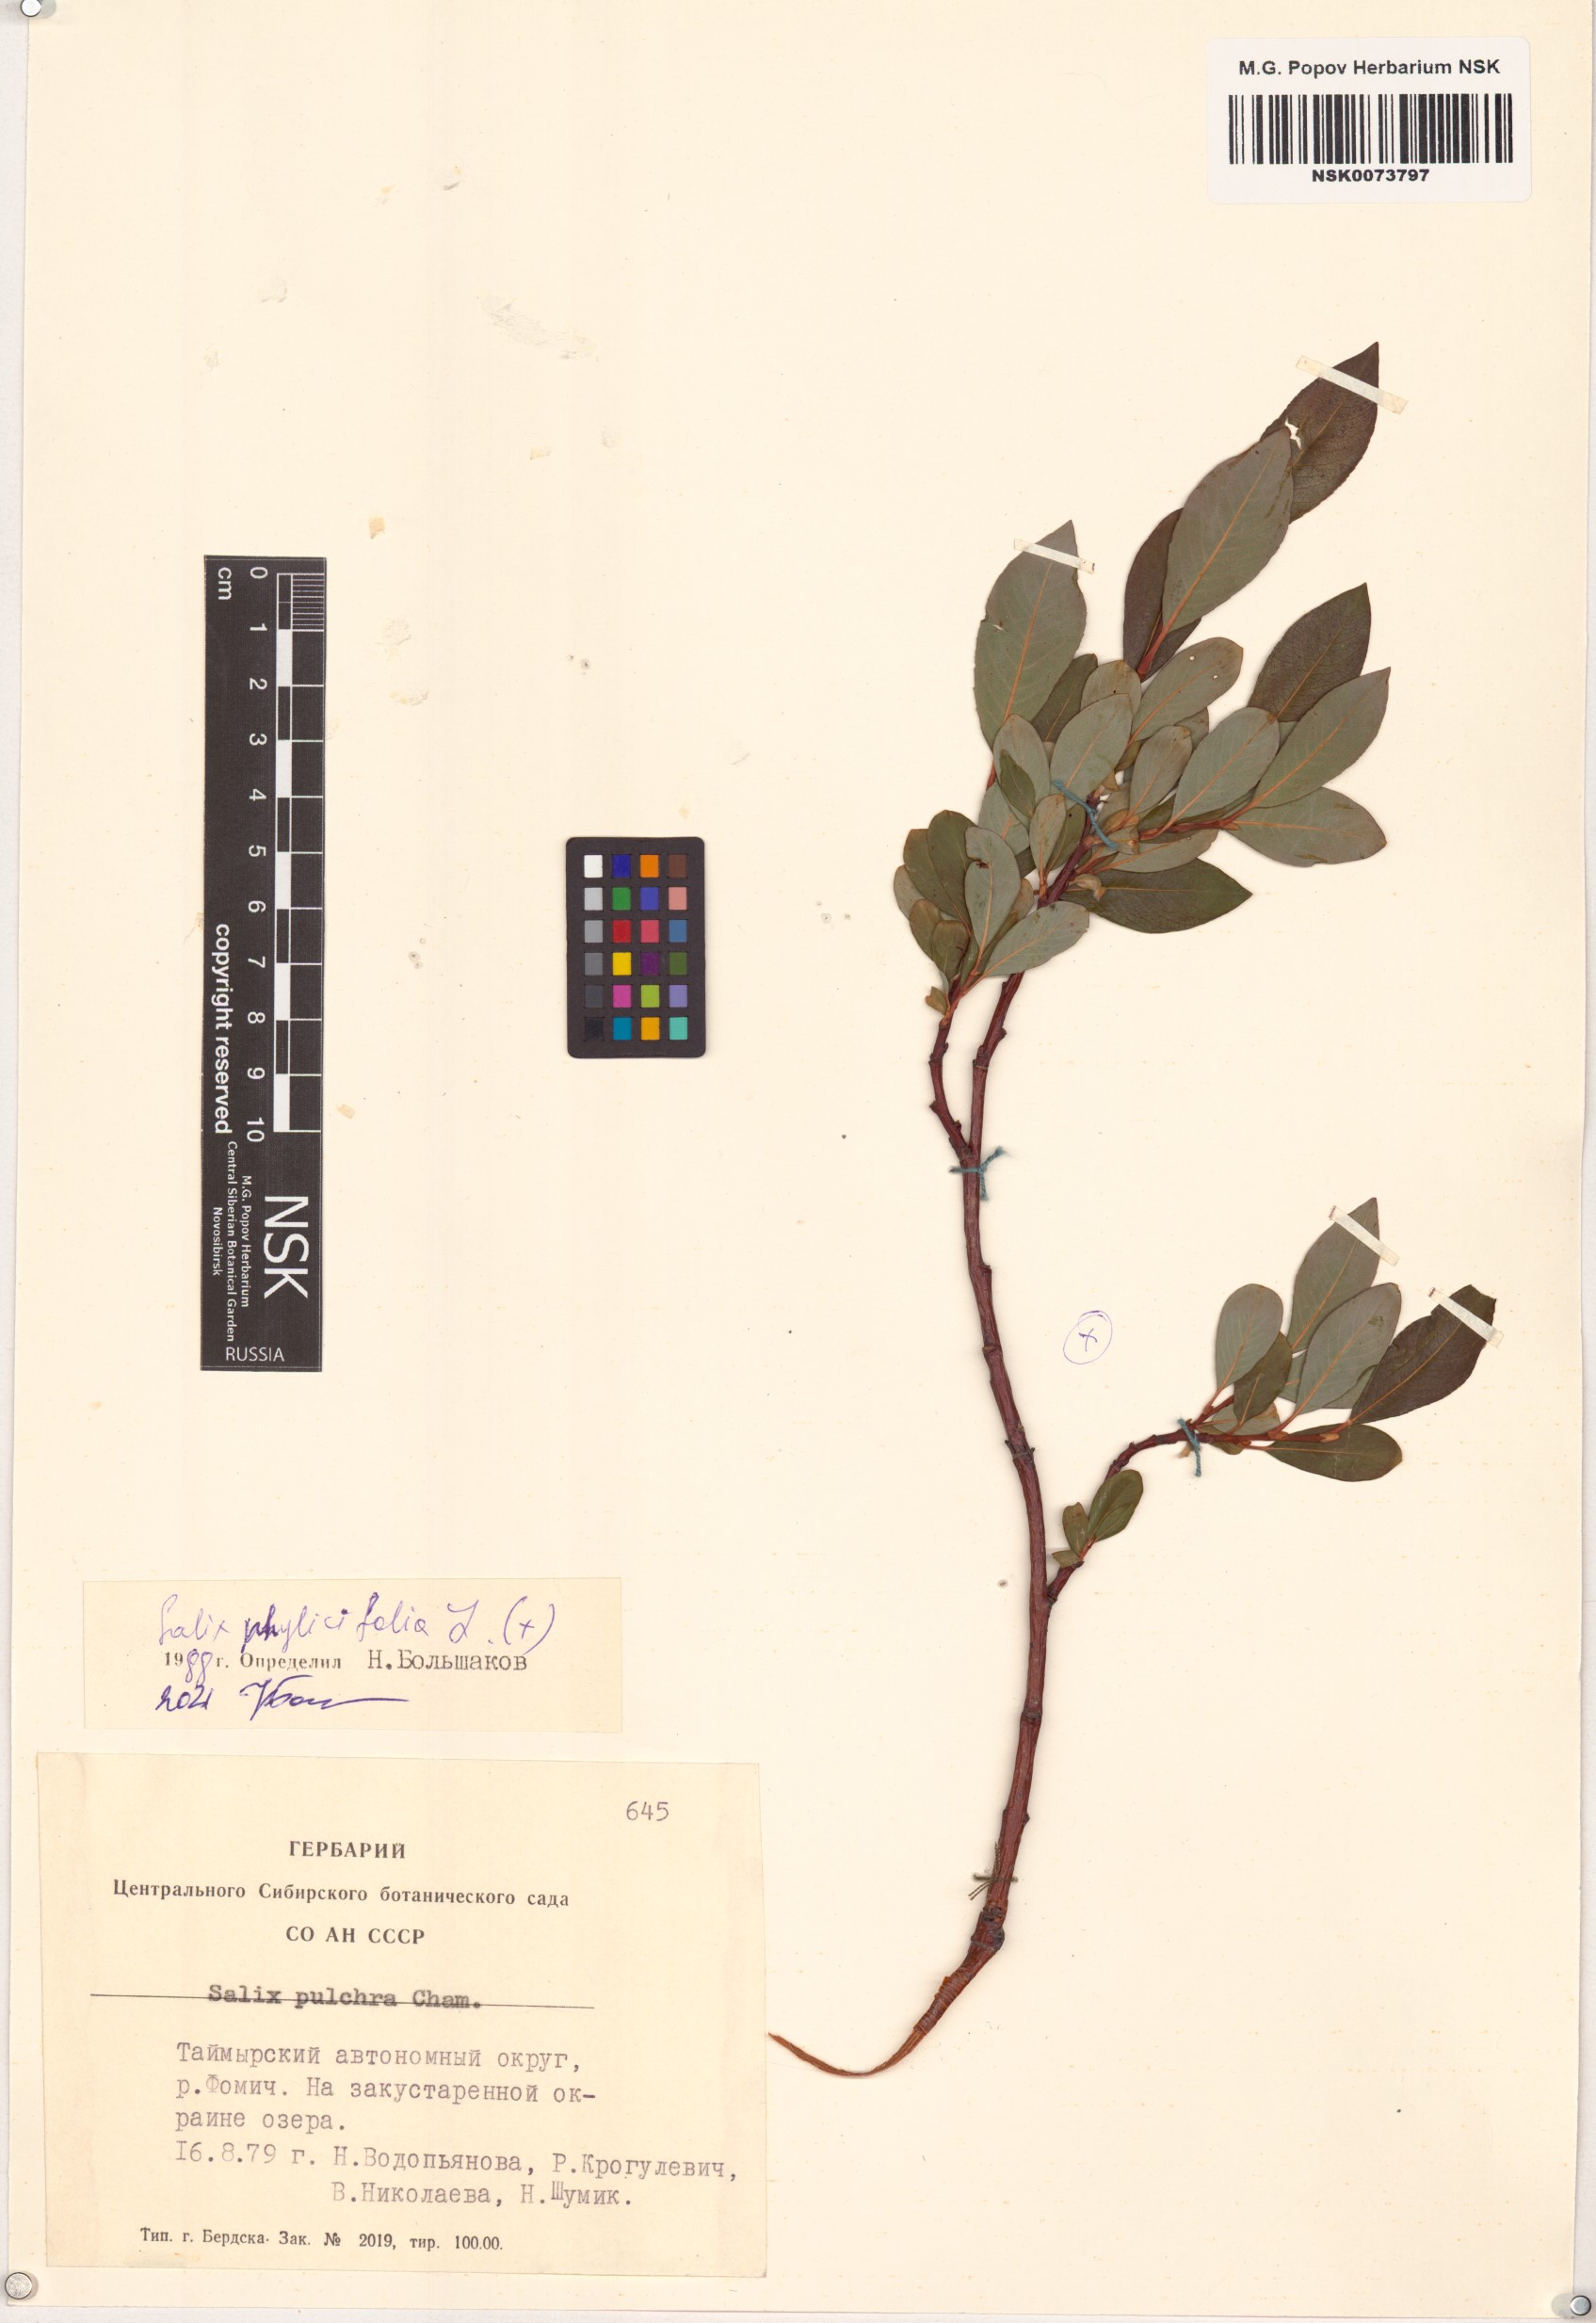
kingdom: Plantae
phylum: Tracheophyta
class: Magnoliopsida
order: Malpighiales
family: Salicaceae
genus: Salix
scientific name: Salix phylicifolia
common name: Tea-leaved willow
